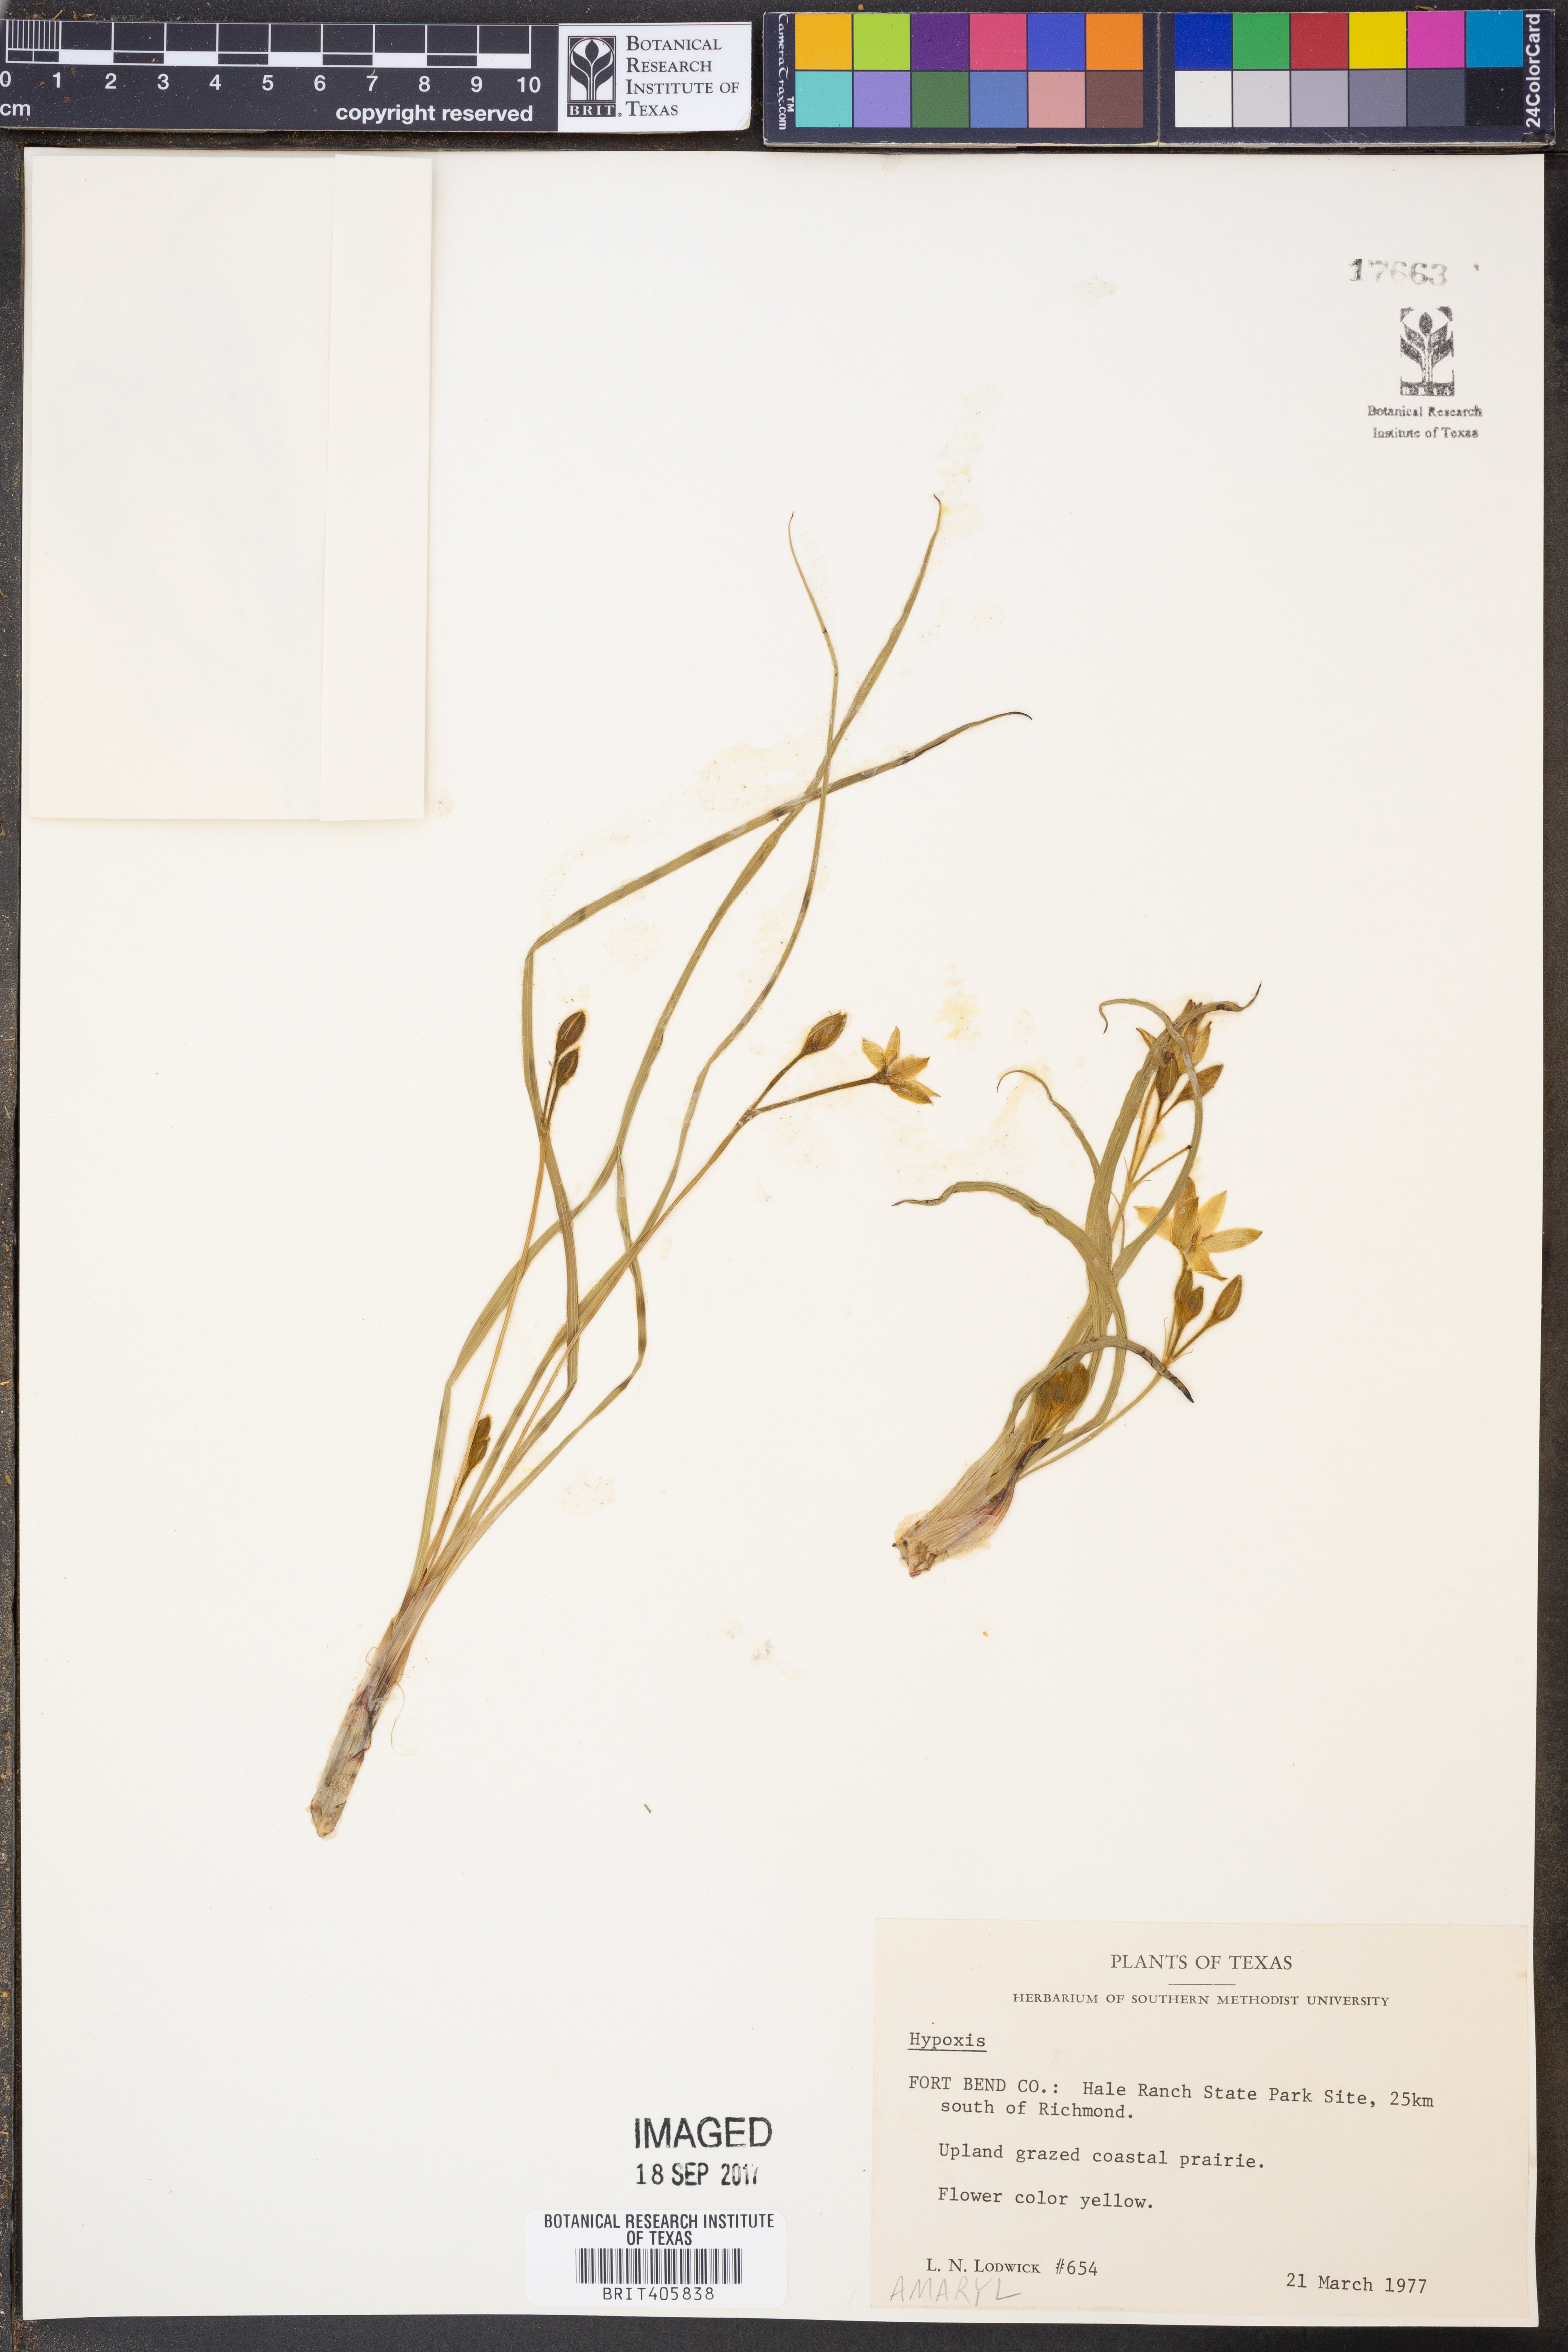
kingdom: Plantae
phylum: Tracheophyta
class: Liliopsida
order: Asparagales
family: Hypoxidaceae
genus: Hypoxis
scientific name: Hypoxis
